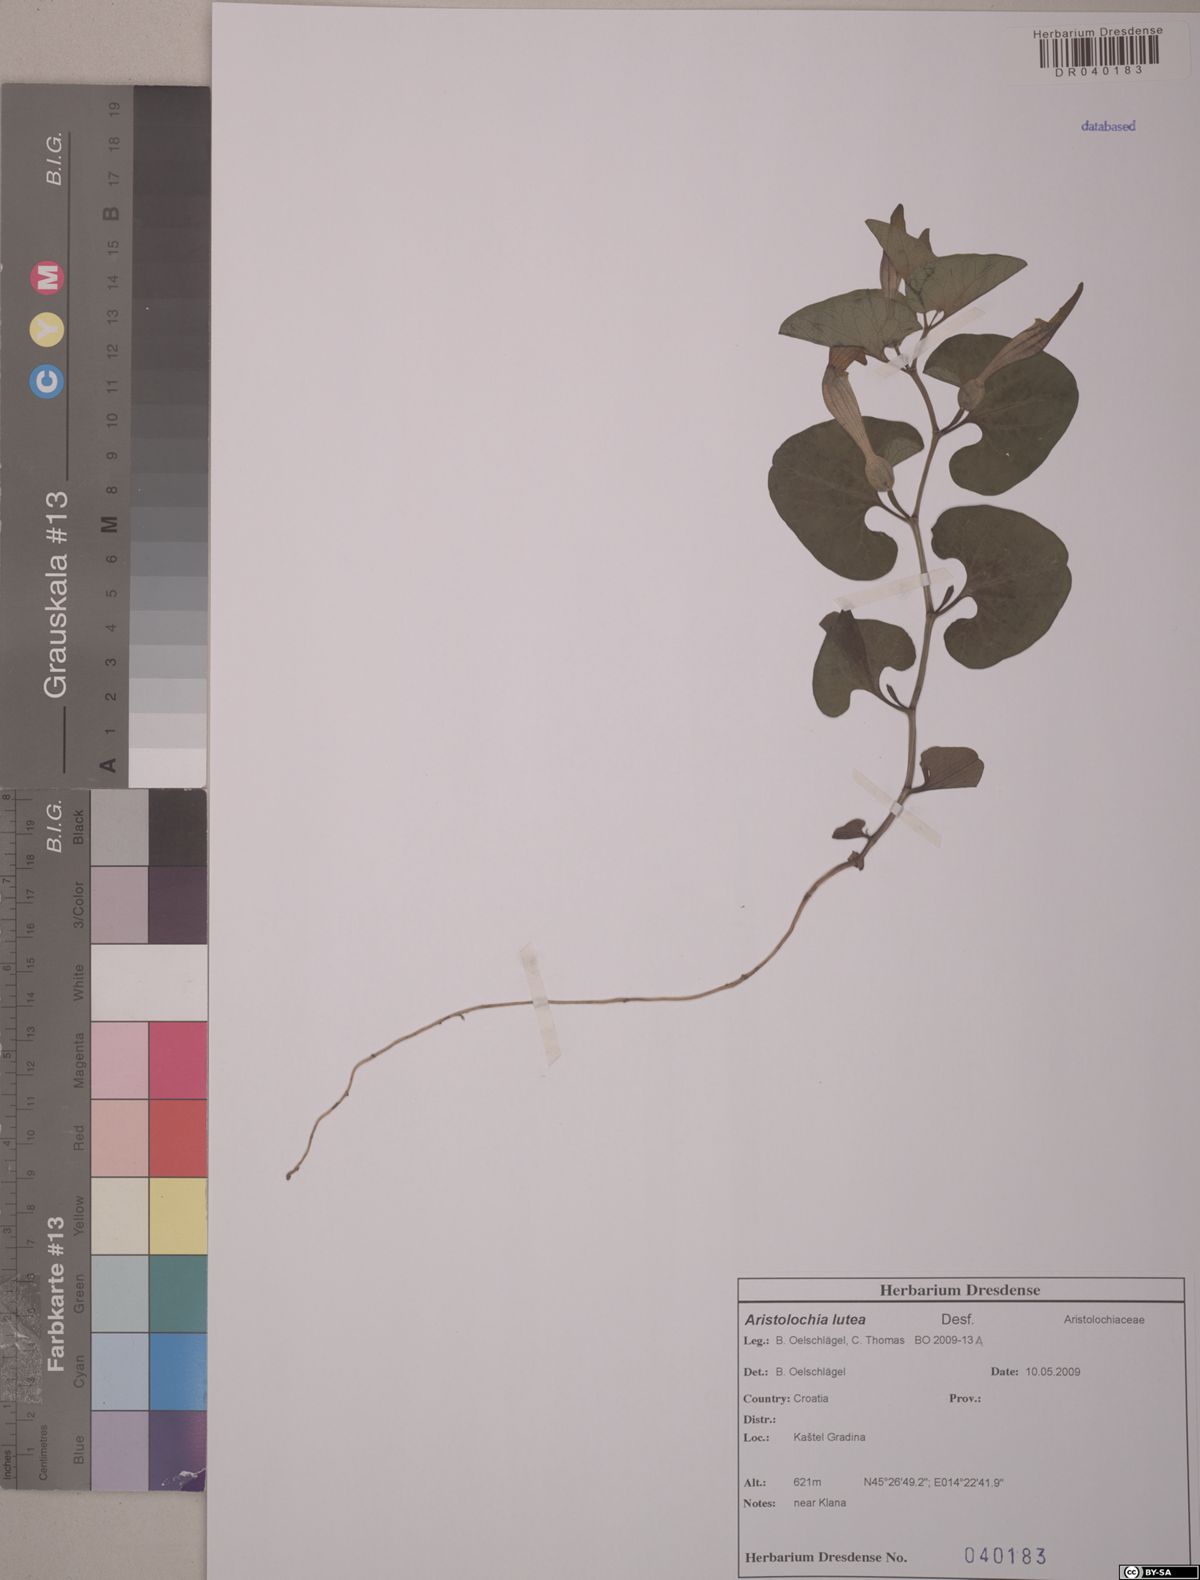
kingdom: Plantae
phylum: Tracheophyta
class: Magnoliopsida
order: Piperales
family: Aristolochiaceae
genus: Aristolochia
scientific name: Aristolochia lutea
